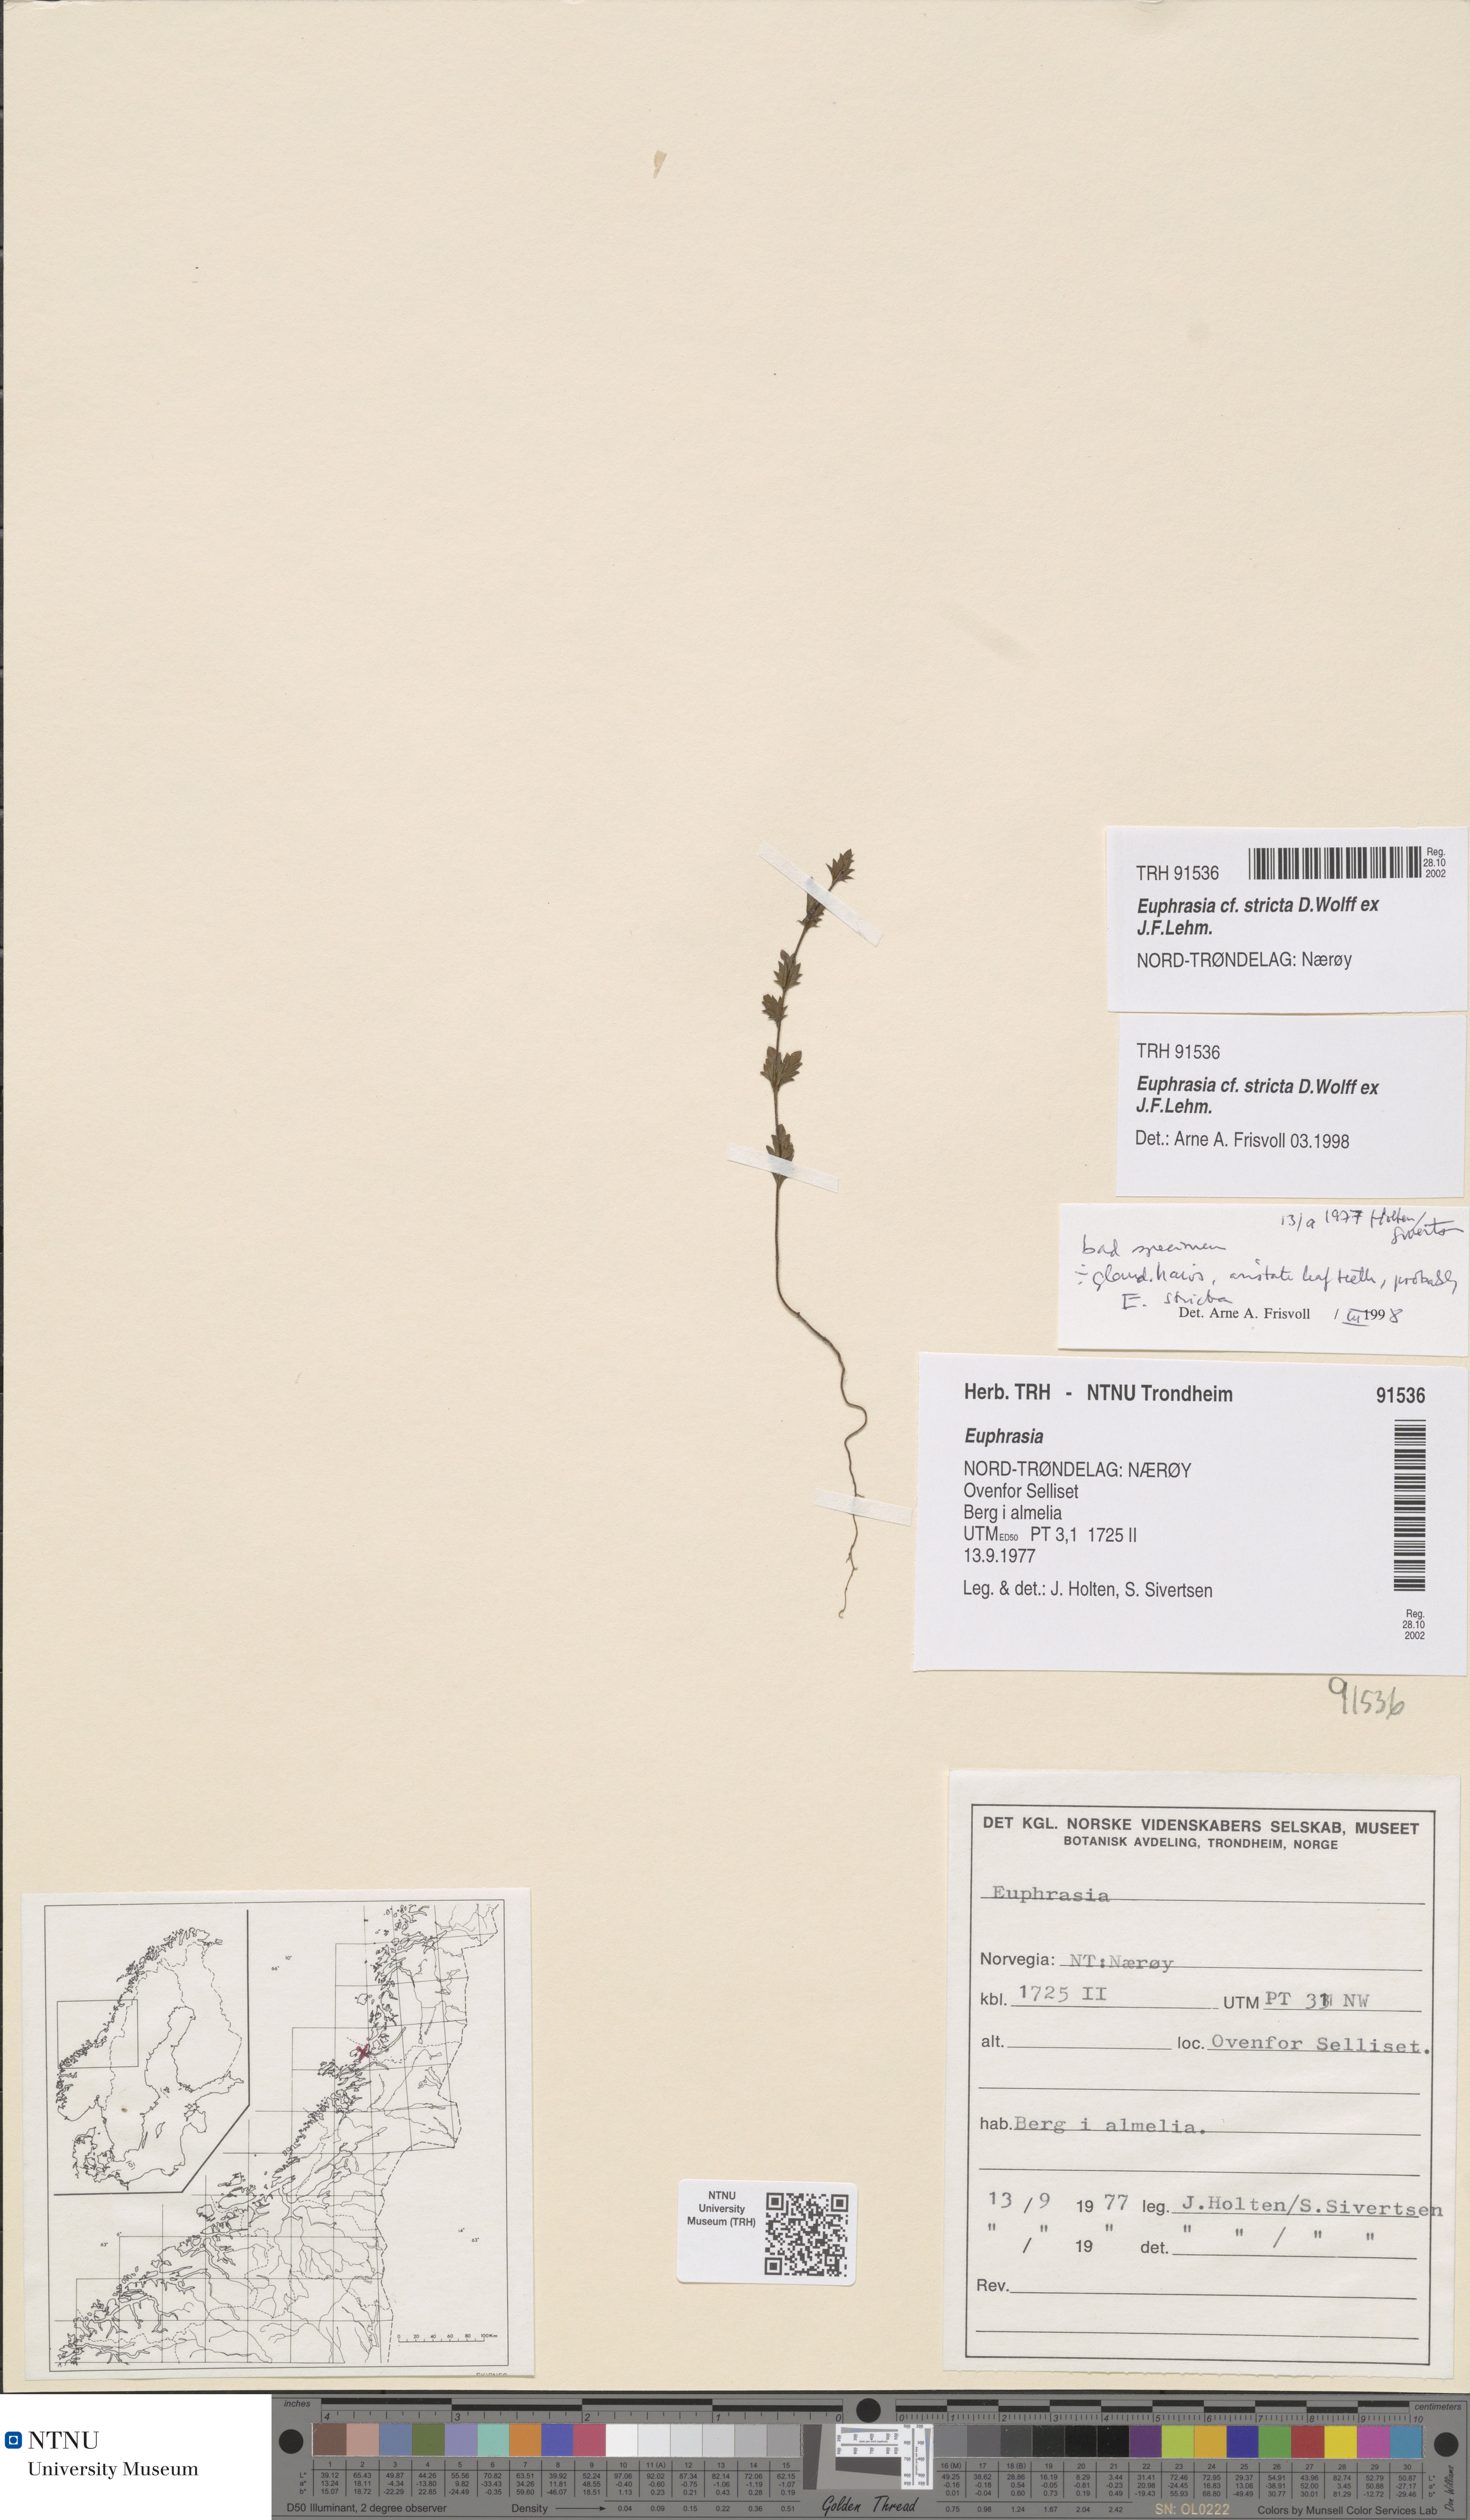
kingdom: Plantae
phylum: Tracheophyta
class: Magnoliopsida
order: Lamiales
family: Orobanchaceae
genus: Euphrasia
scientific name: Euphrasia stricta
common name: Drug eyebright
